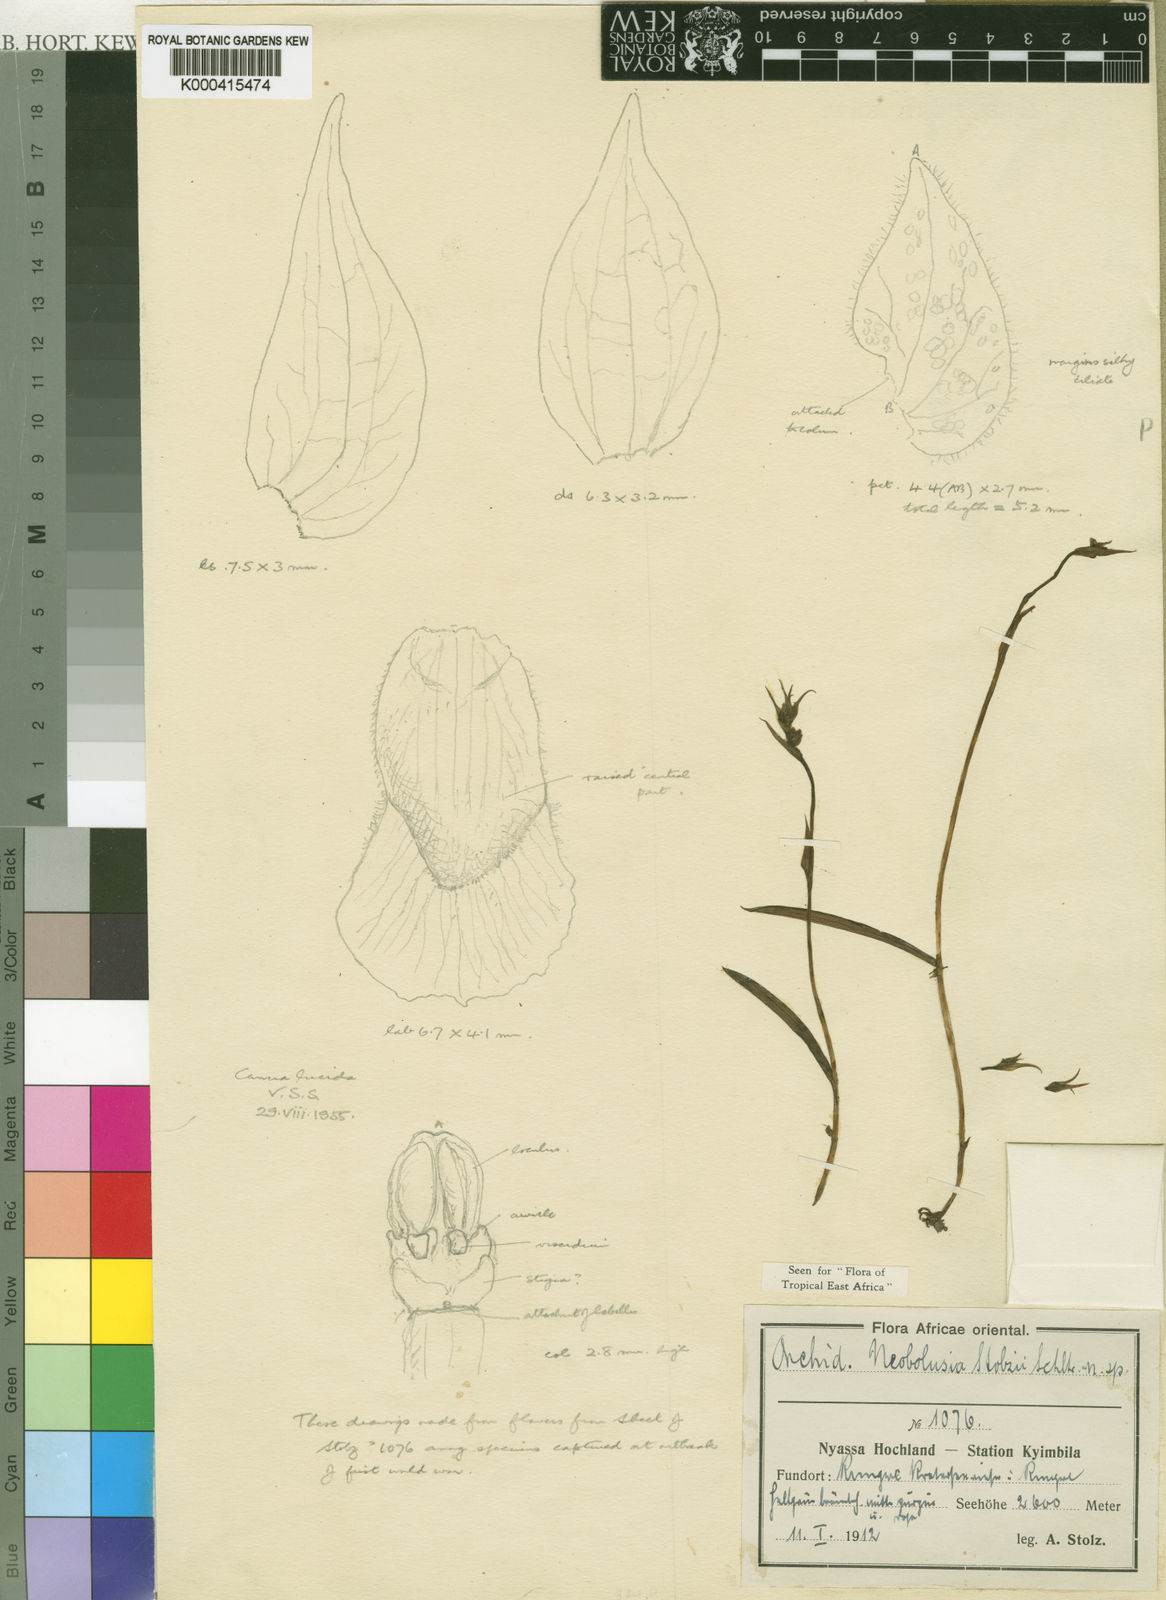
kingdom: Plantae
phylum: Tracheophyta
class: Liliopsida
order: Asparagales
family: Orchidaceae
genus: Neobolusia
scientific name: Neobolusia stolzii
